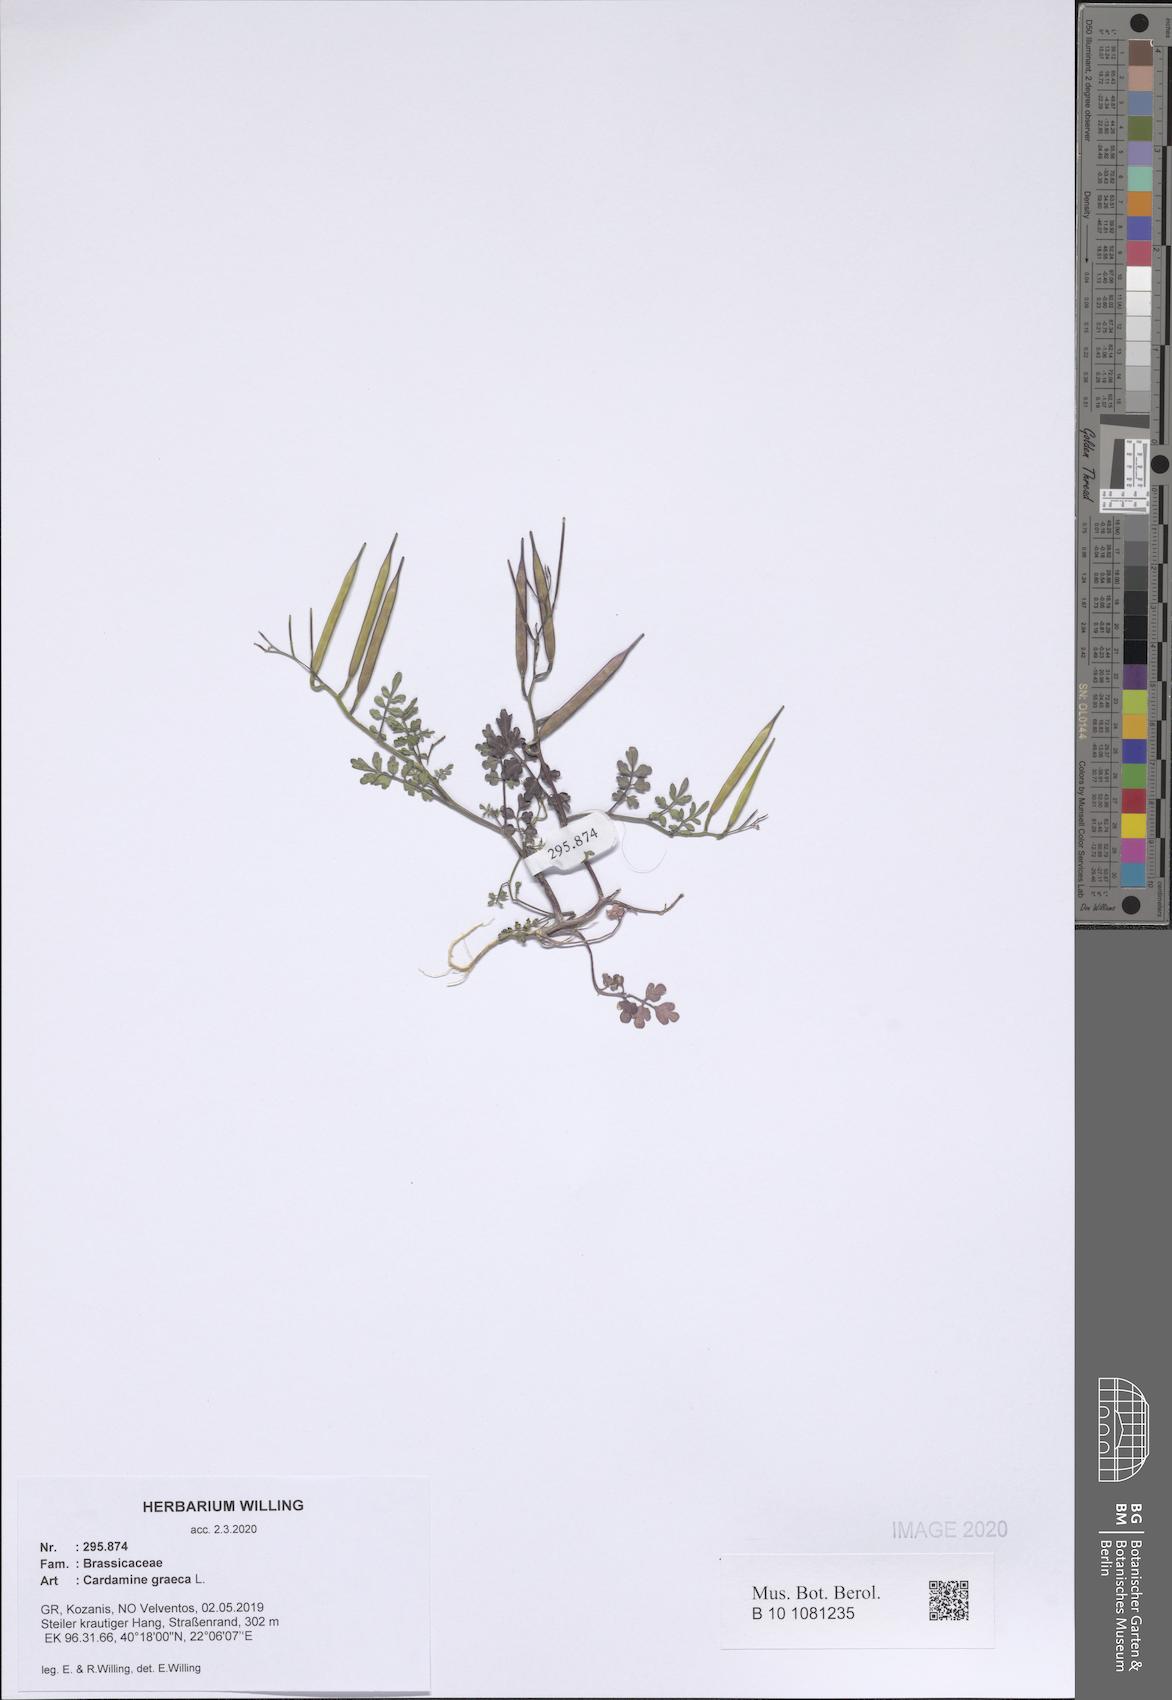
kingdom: Plantae
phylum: Tracheophyta
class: Magnoliopsida
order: Brassicales
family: Brassicaceae
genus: Cardamine
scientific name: Cardamine graeca
